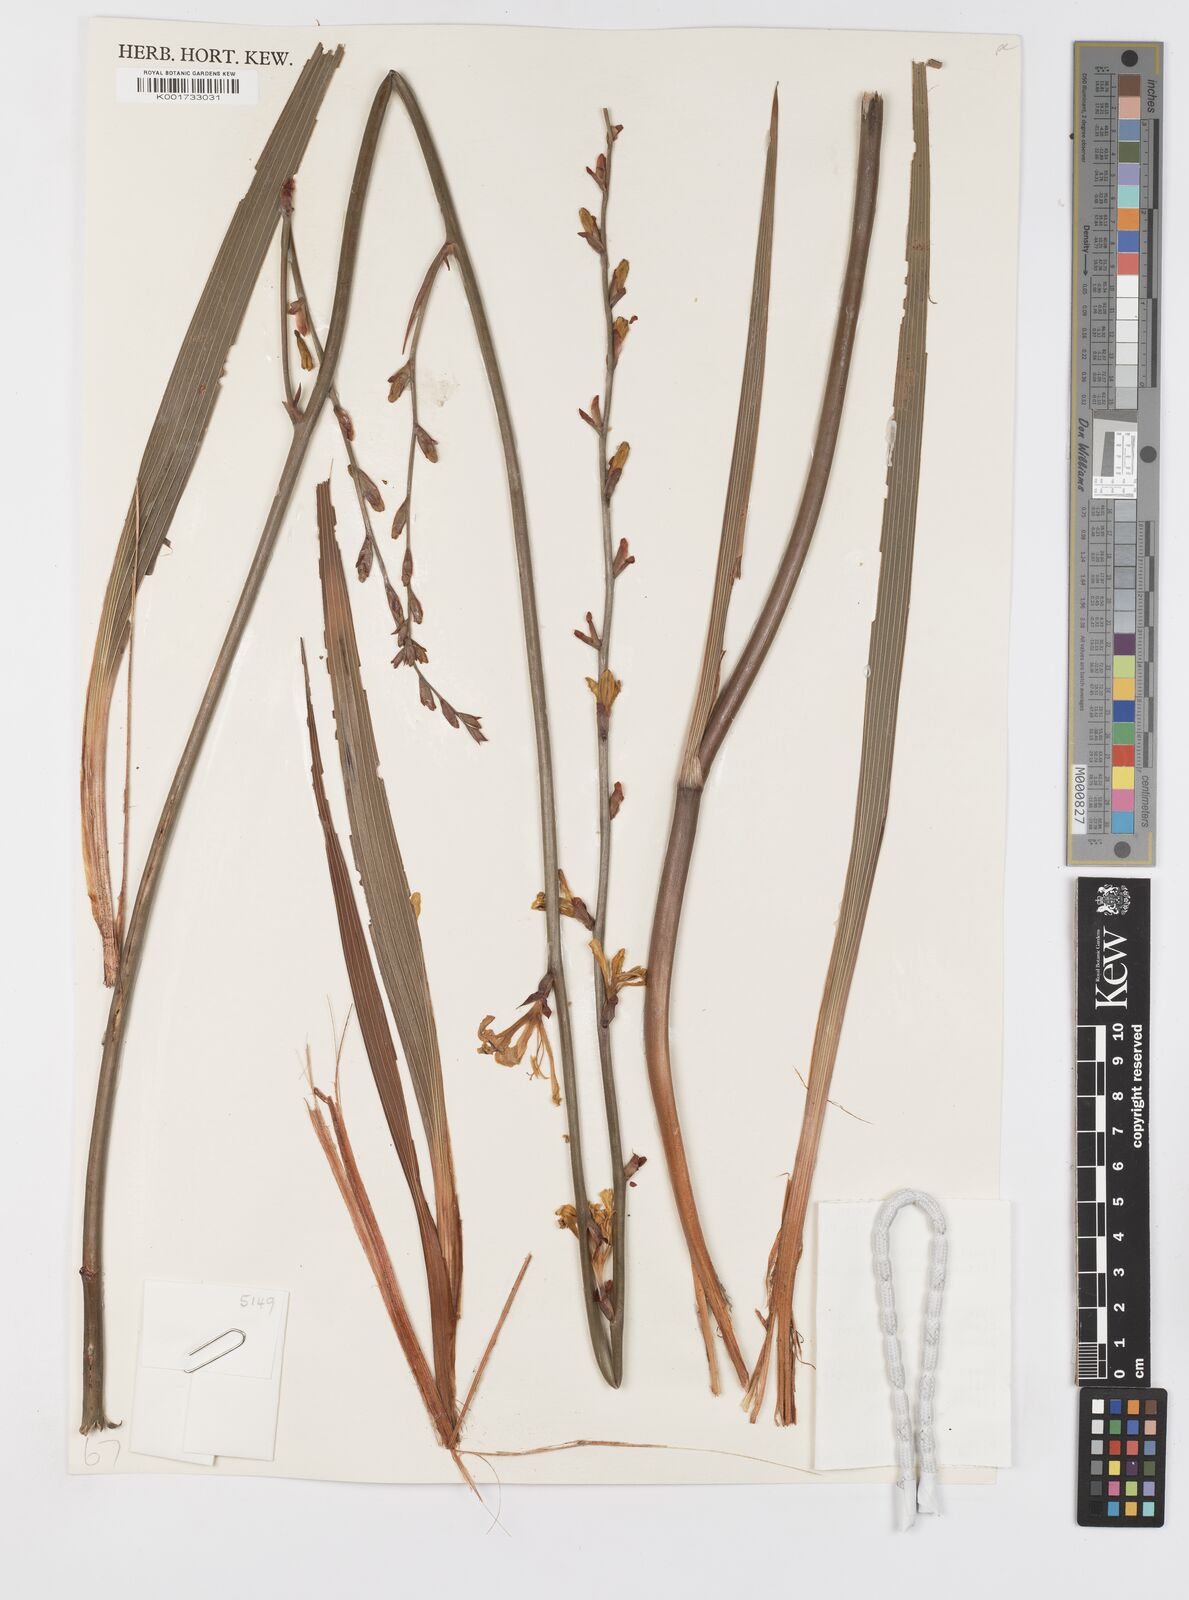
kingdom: Plantae
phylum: Tracheophyta
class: Liliopsida
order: Asparagales
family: Iridaceae
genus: Tritoniopsis
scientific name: Tritoniopsis nemorosa
